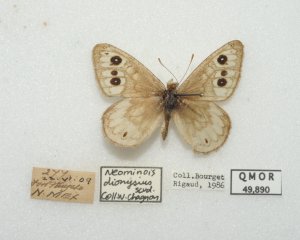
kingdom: Animalia
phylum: Arthropoda
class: Insecta
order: Lepidoptera
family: Nymphalidae
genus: Neominois
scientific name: Neominois ridingsii
